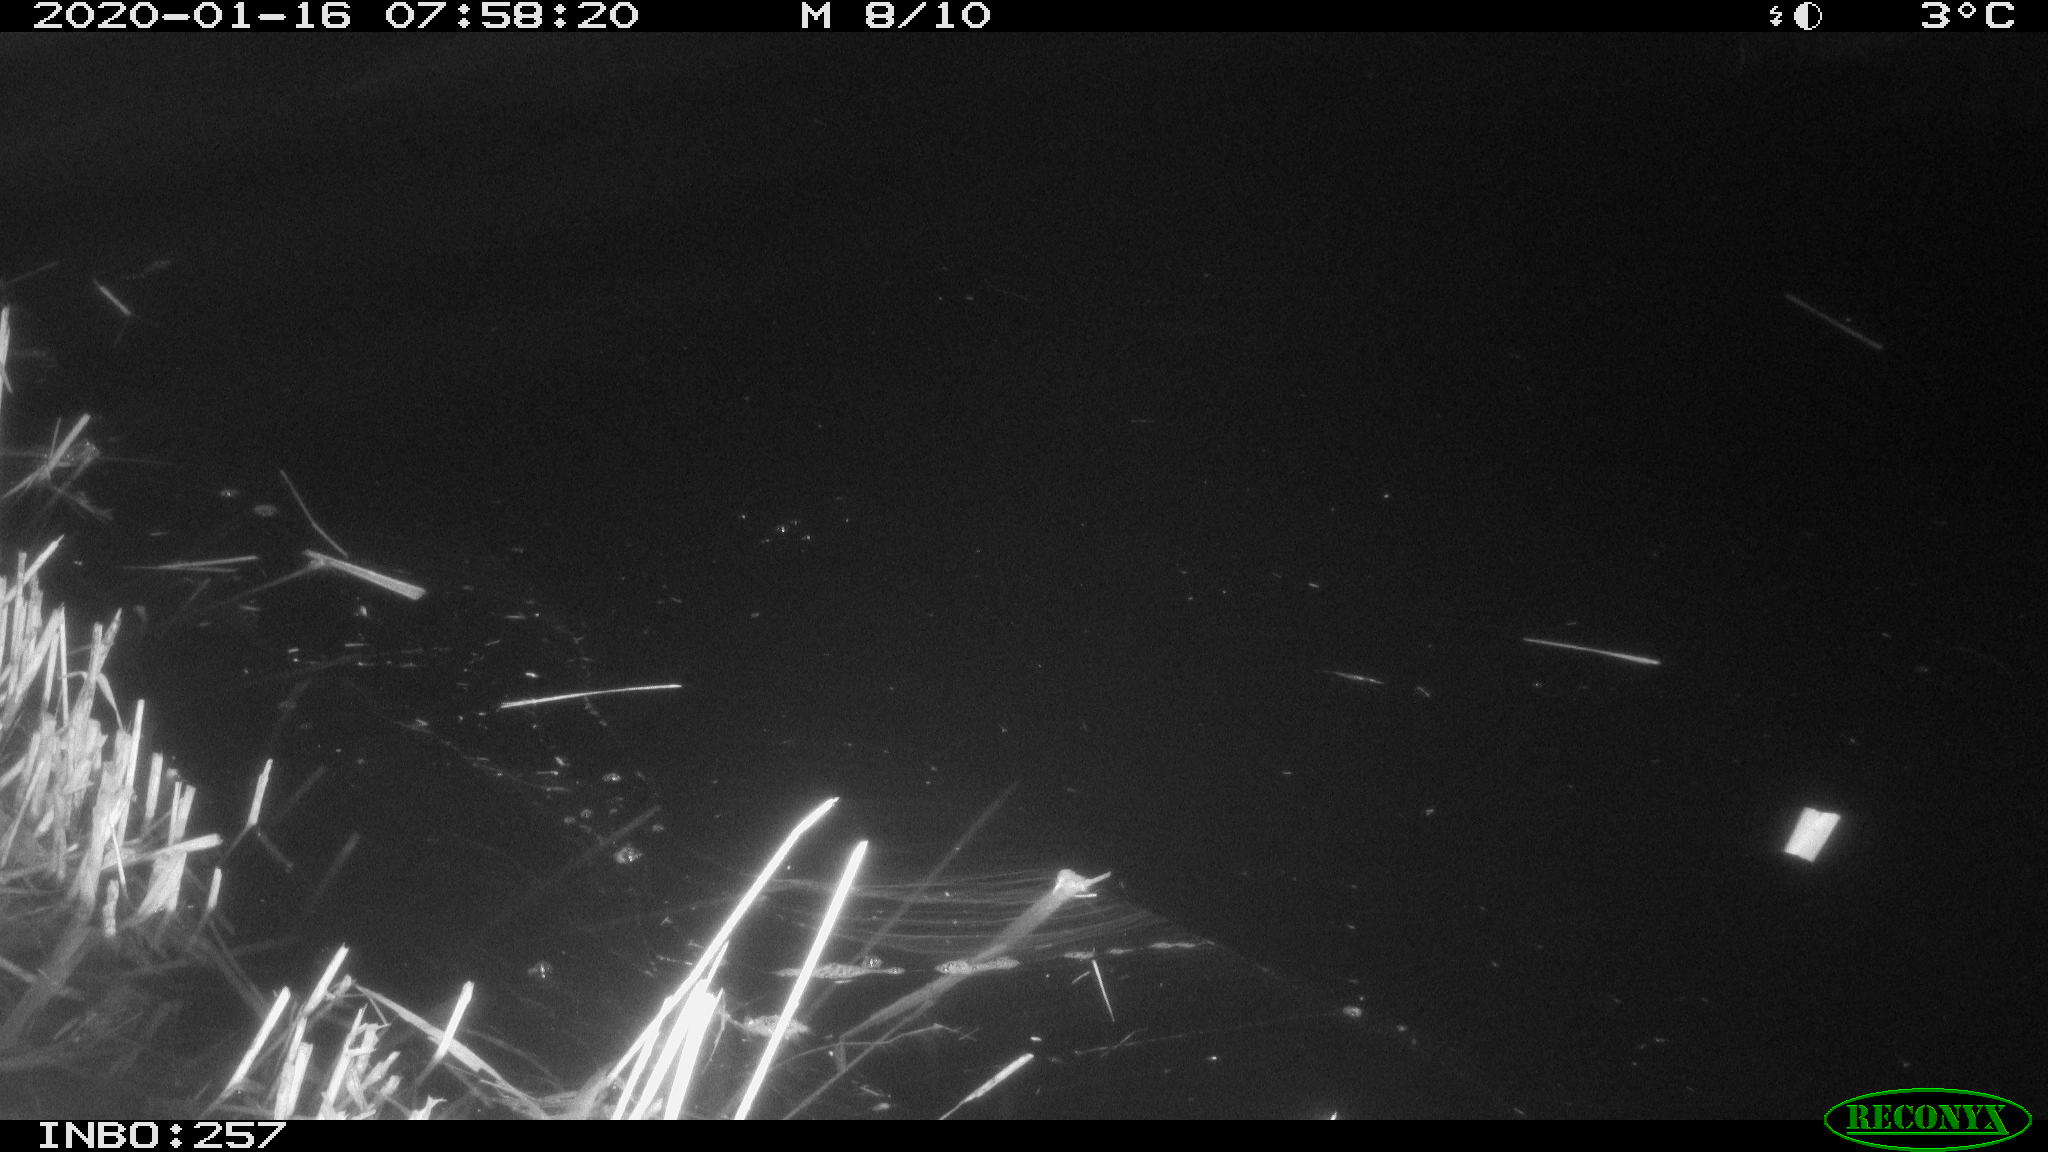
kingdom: Animalia
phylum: Chordata
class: Aves
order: Anseriformes
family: Anatidae
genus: Anas
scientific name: Anas platyrhynchos
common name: Mallard
